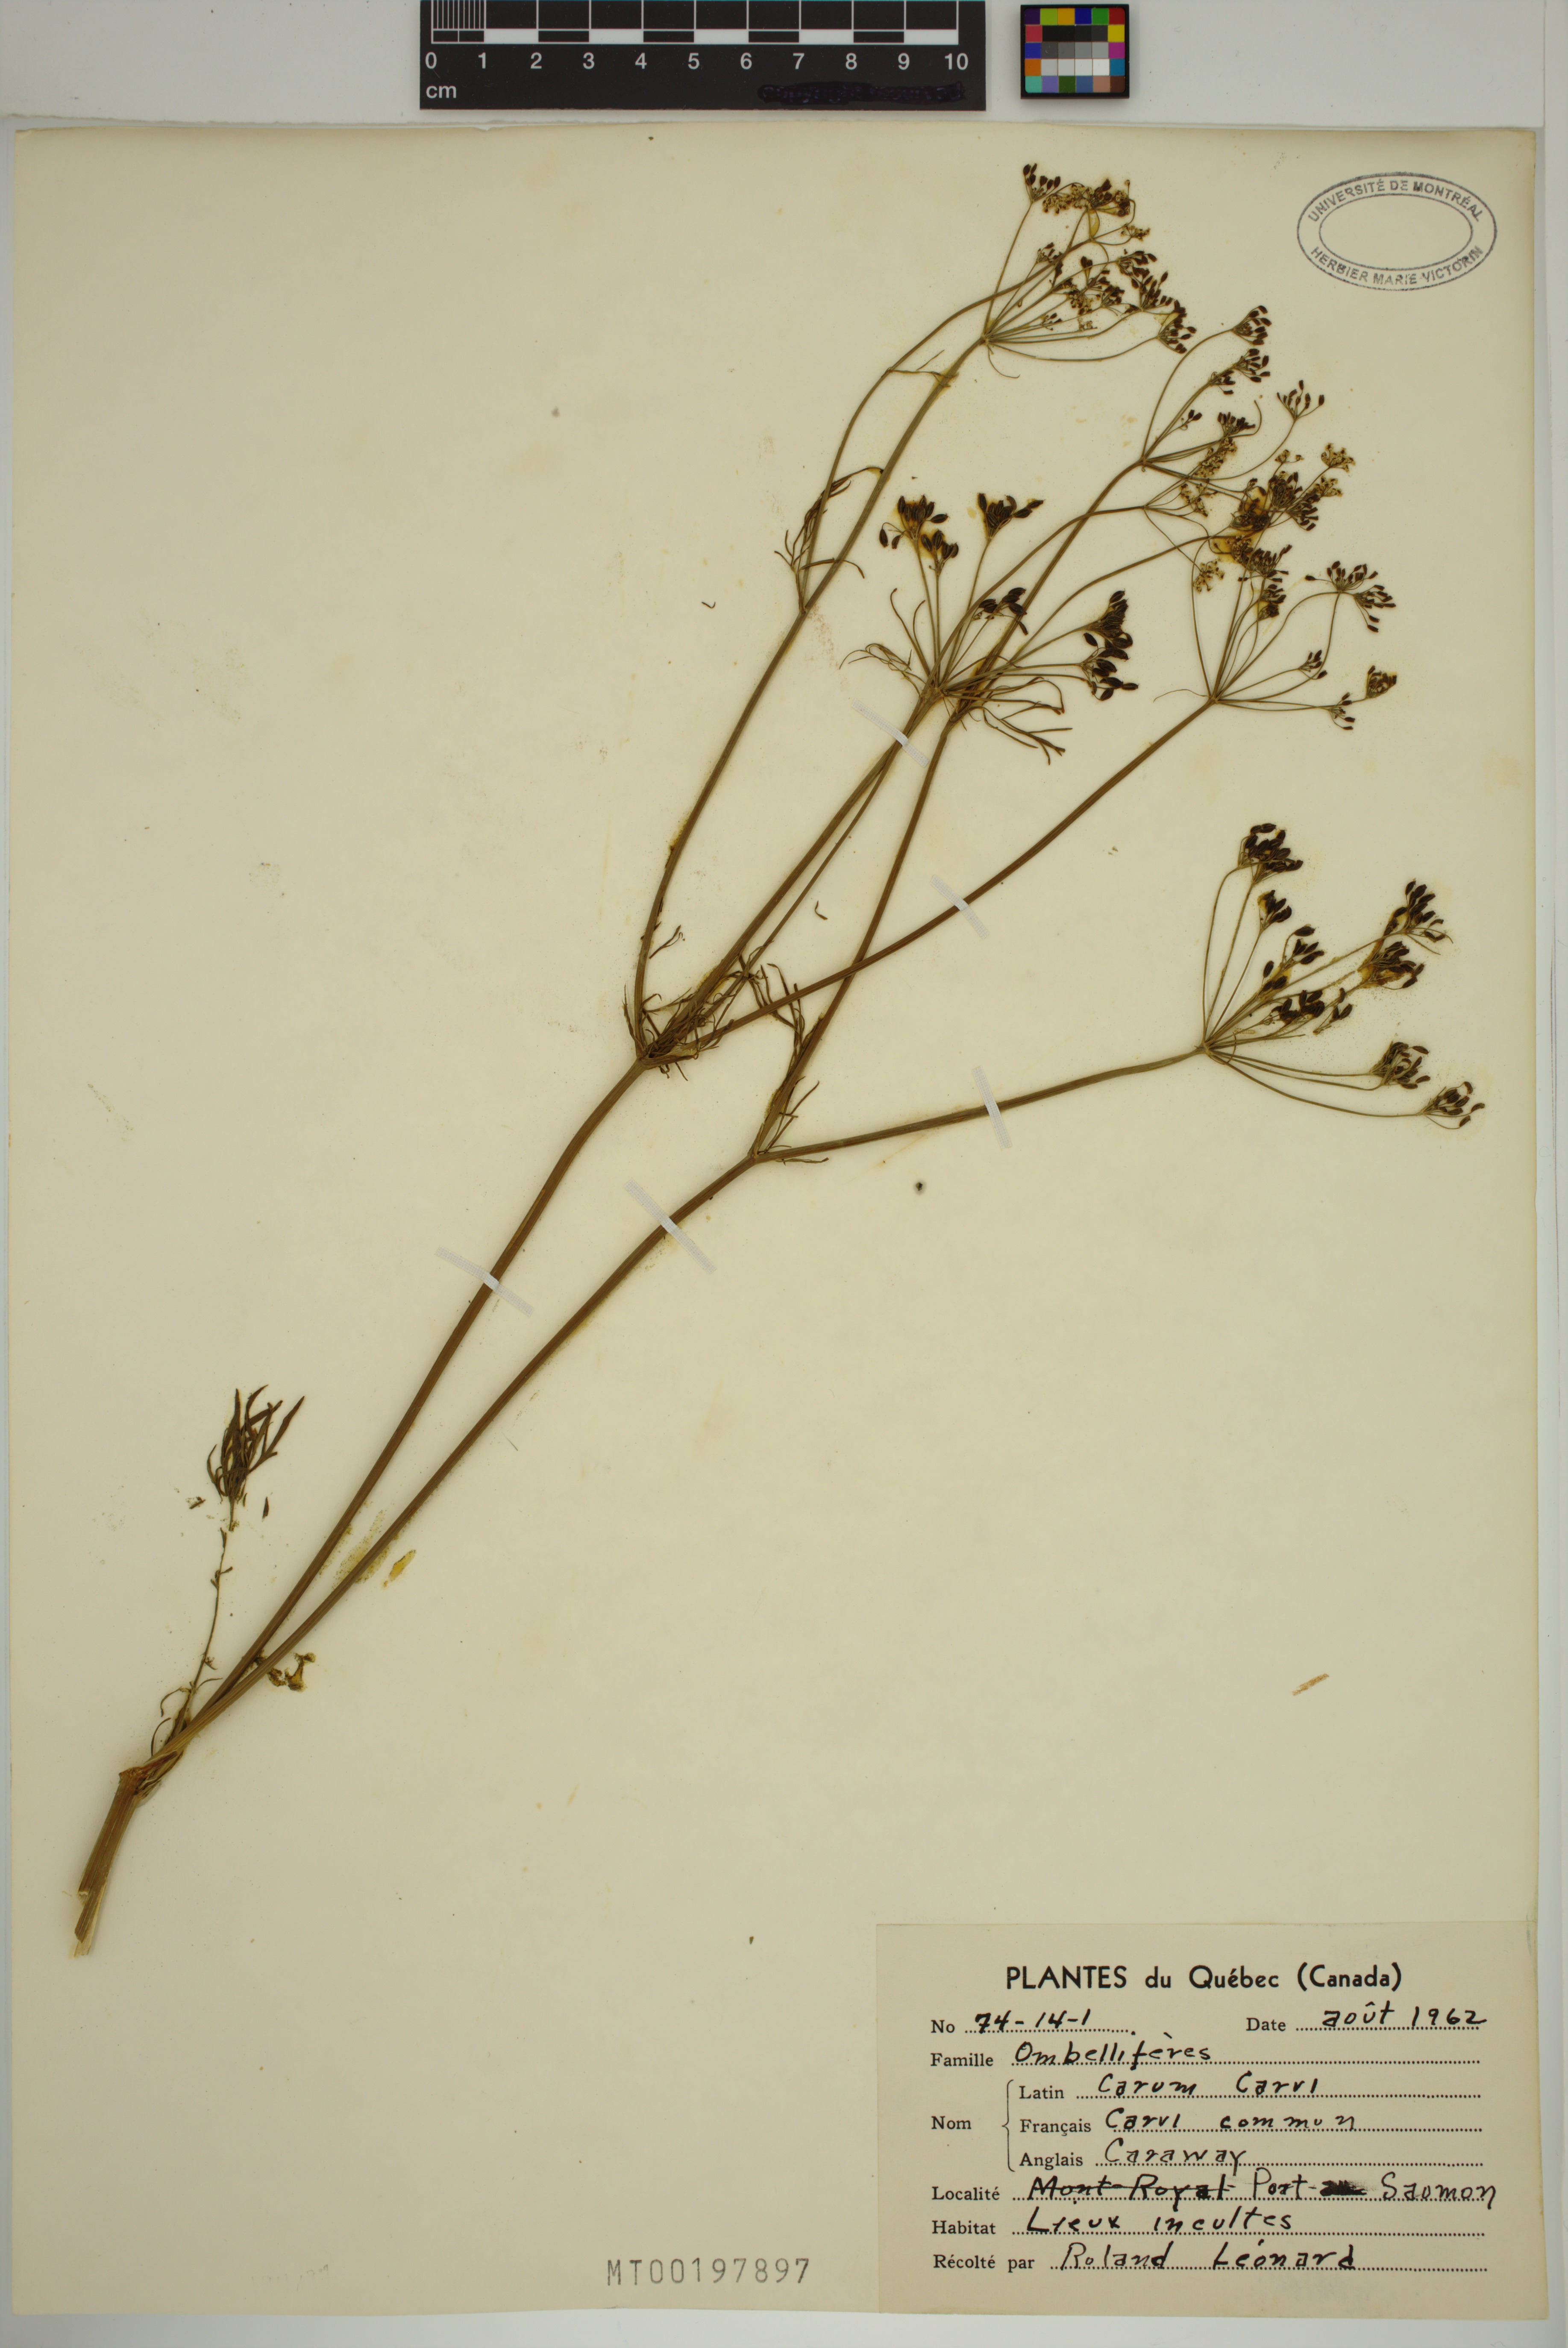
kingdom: Plantae
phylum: Tracheophyta
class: Magnoliopsida
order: Apiales
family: Apiaceae
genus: Carum
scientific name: Carum carvi
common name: Caraway
